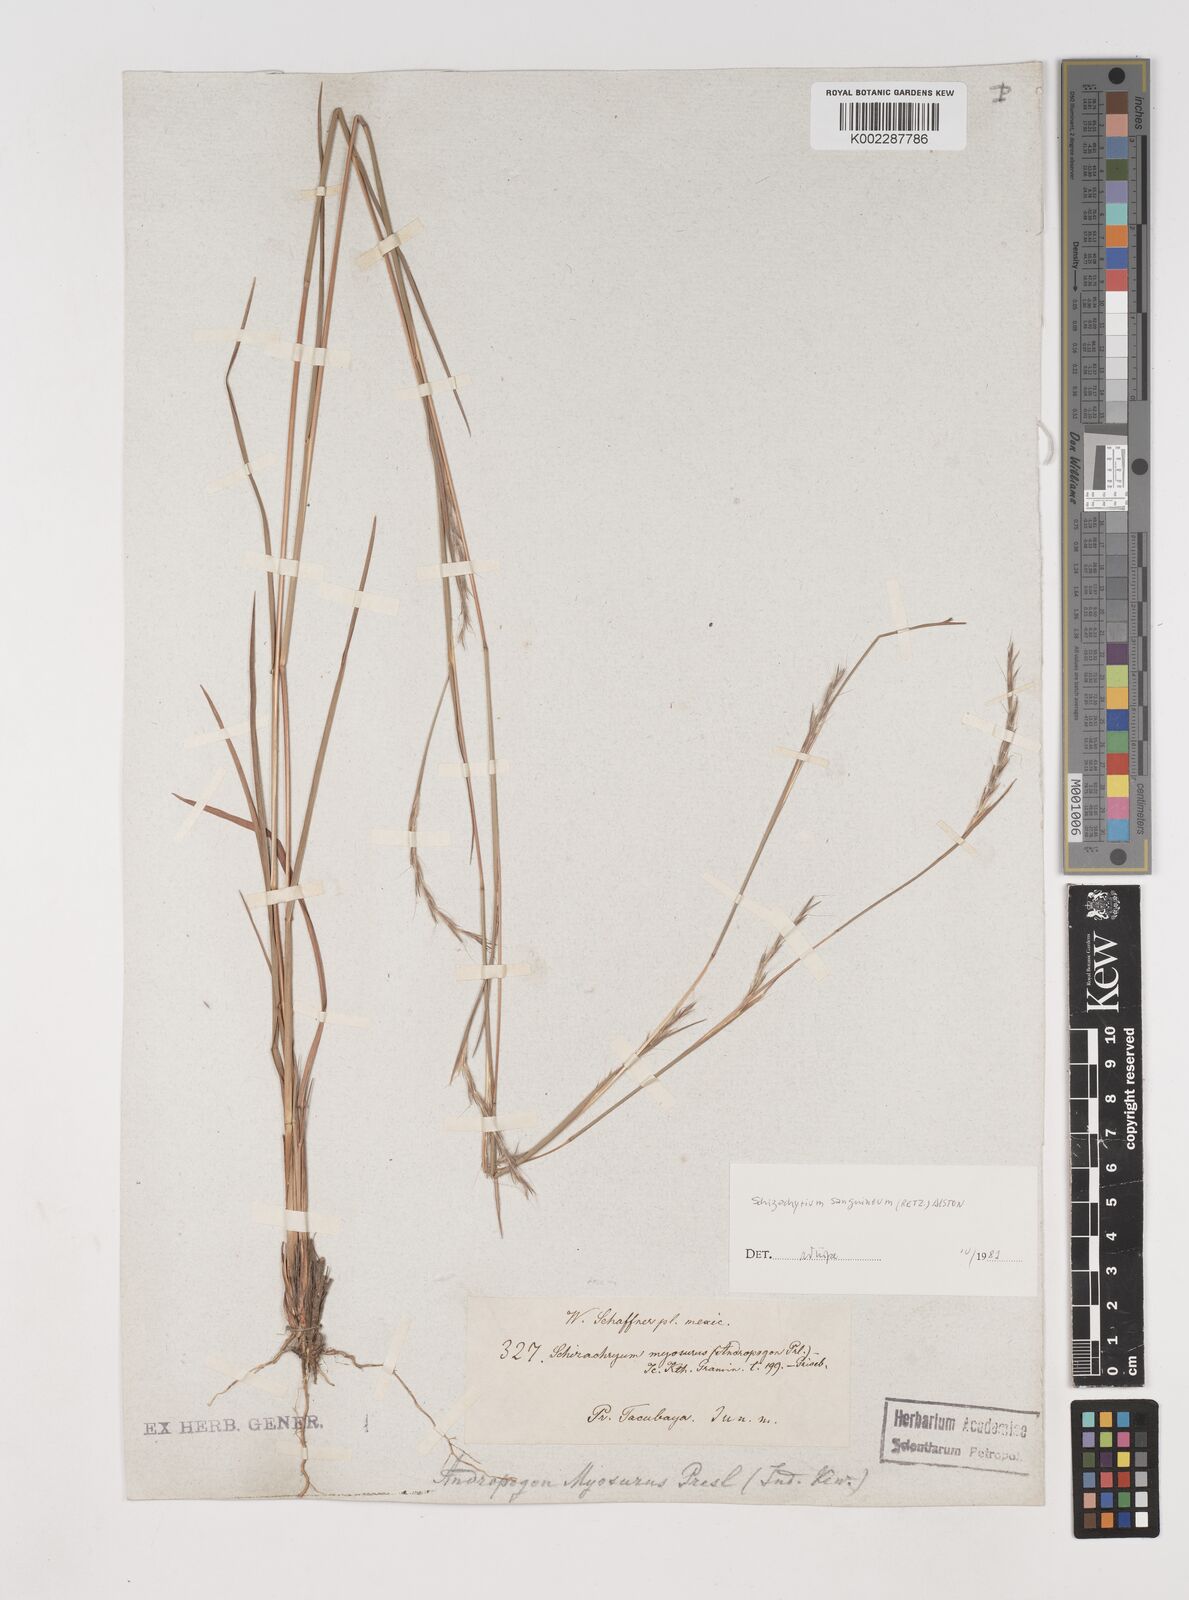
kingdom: Plantae
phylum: Tracheophyta
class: Liliopsida
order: Poales
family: Poaceae
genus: Schizachyrium
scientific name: Schizachyrium sanguineum
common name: Crimson bluestem
